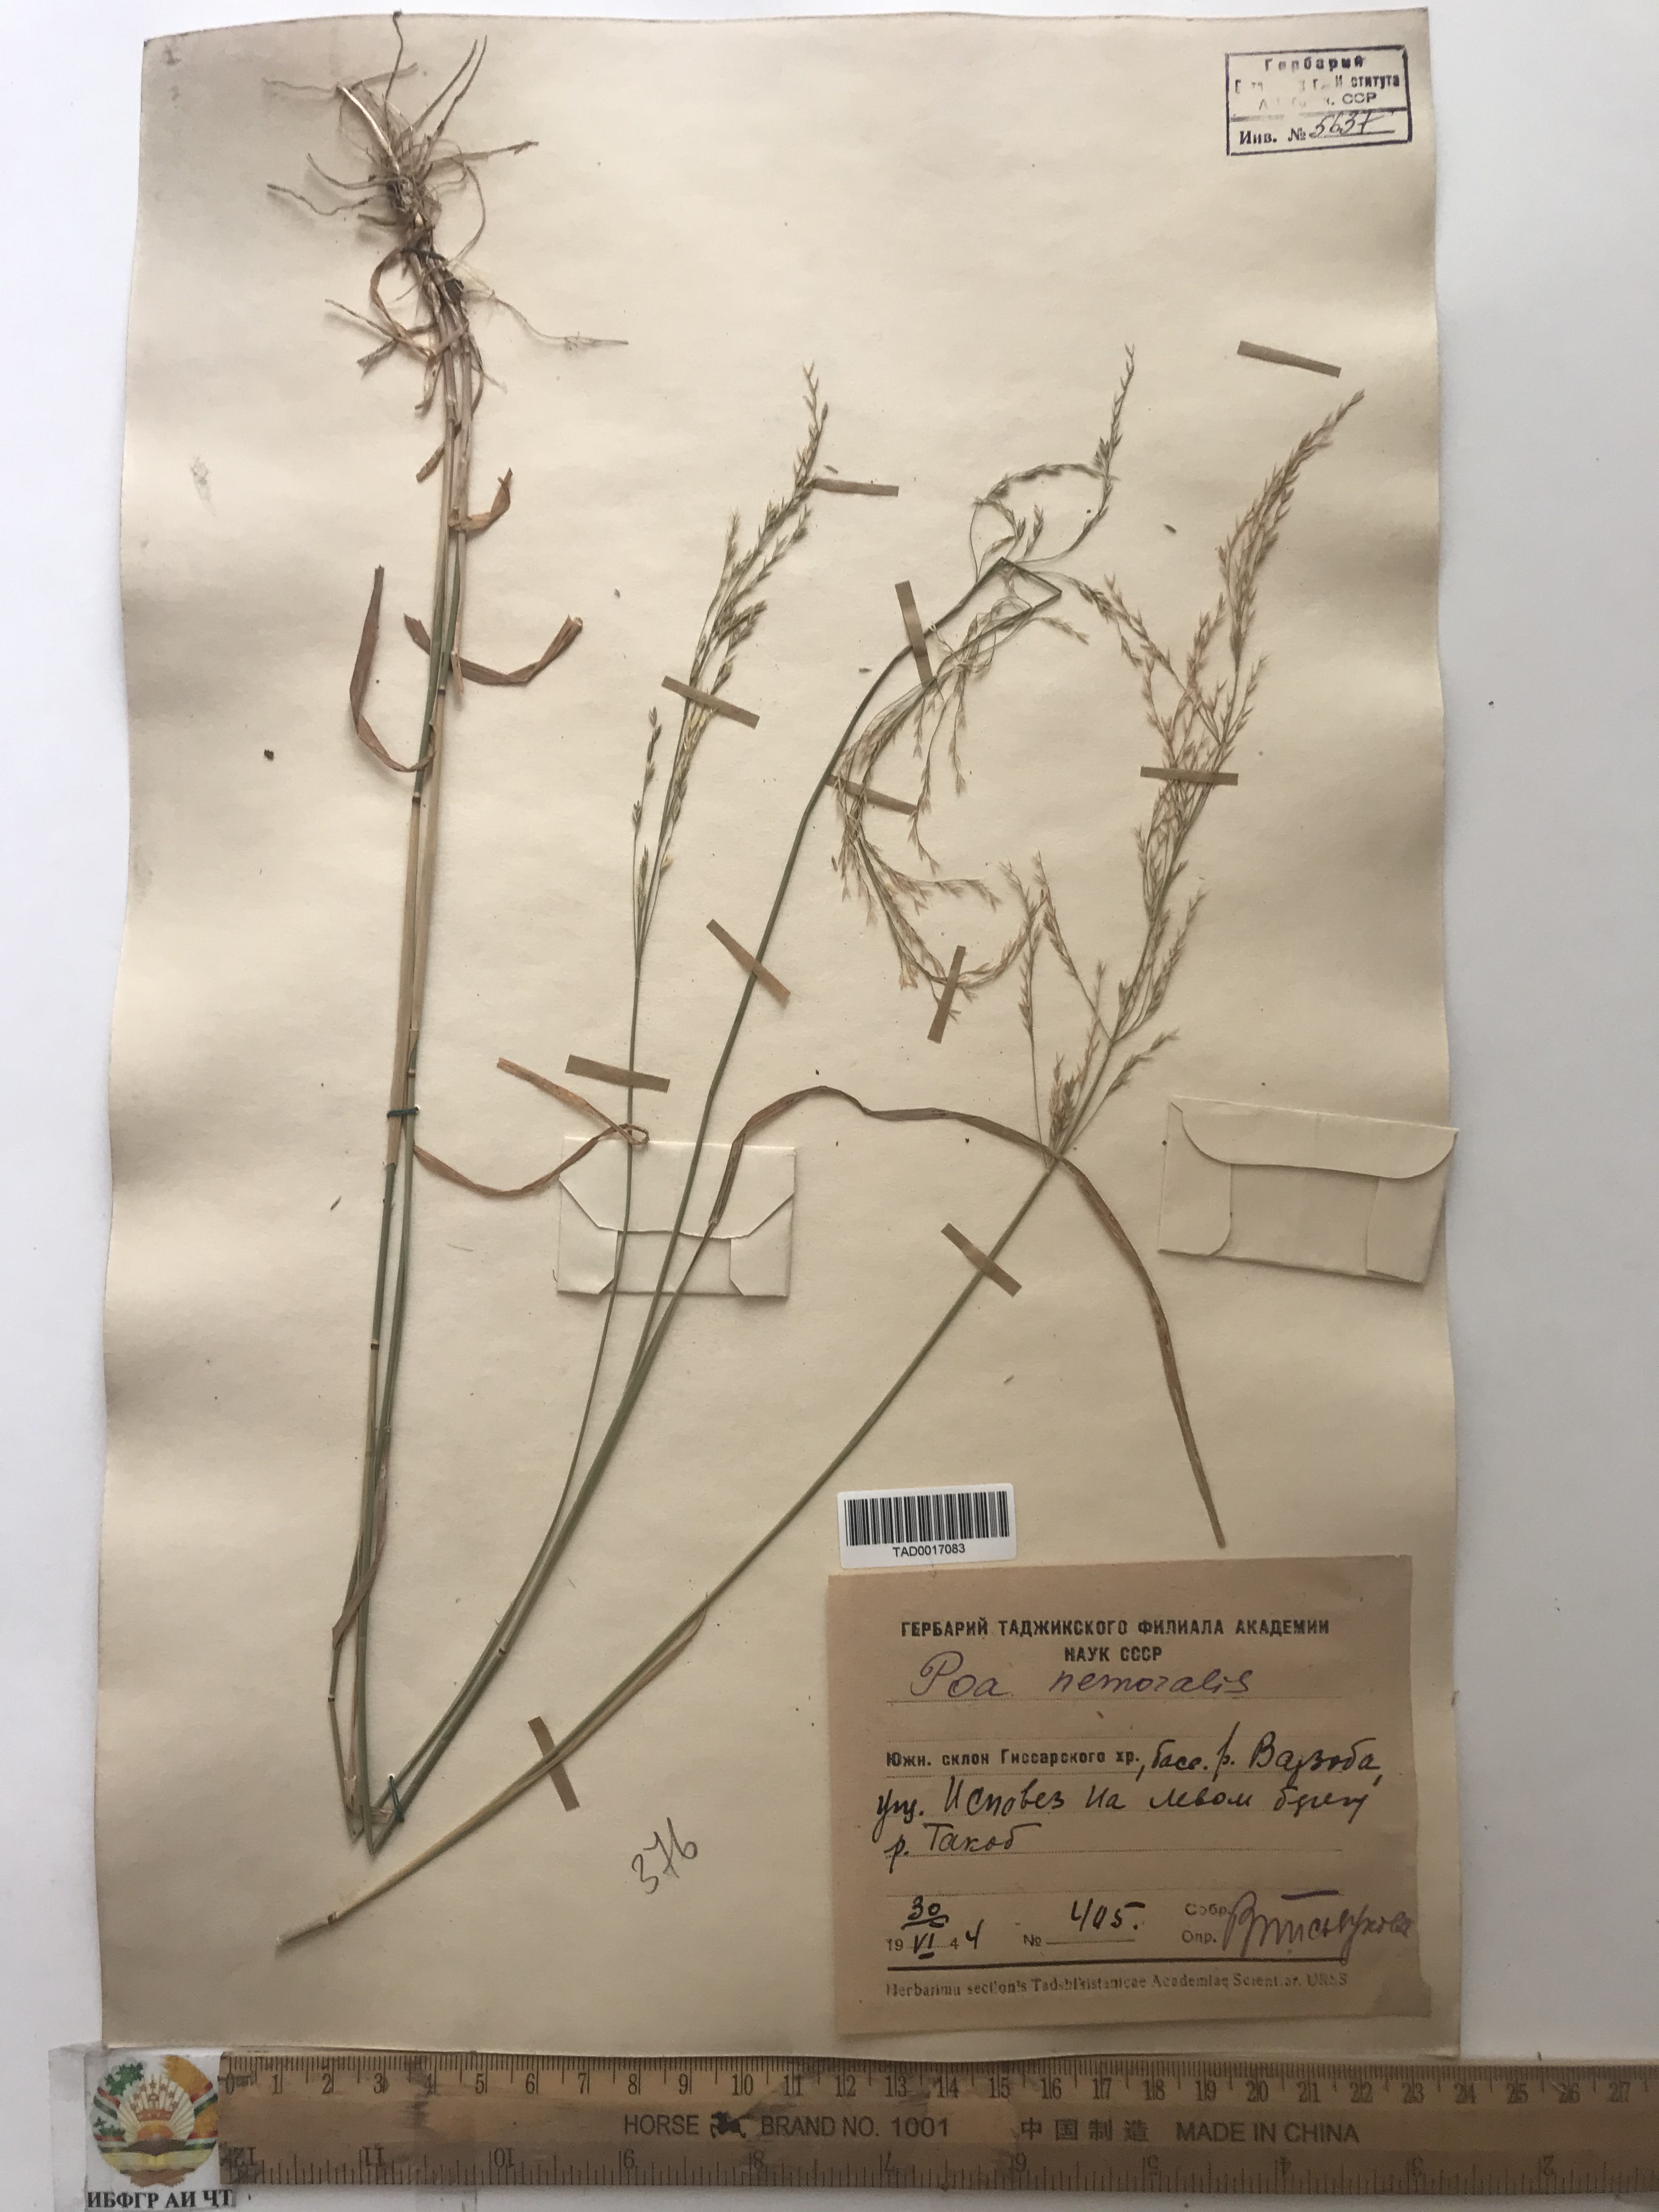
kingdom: Plantae
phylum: Tracheophyta
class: Liliopsida
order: Poales
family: Poaceae
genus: Poa
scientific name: Poa nemoralis
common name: Wood bluegrass
